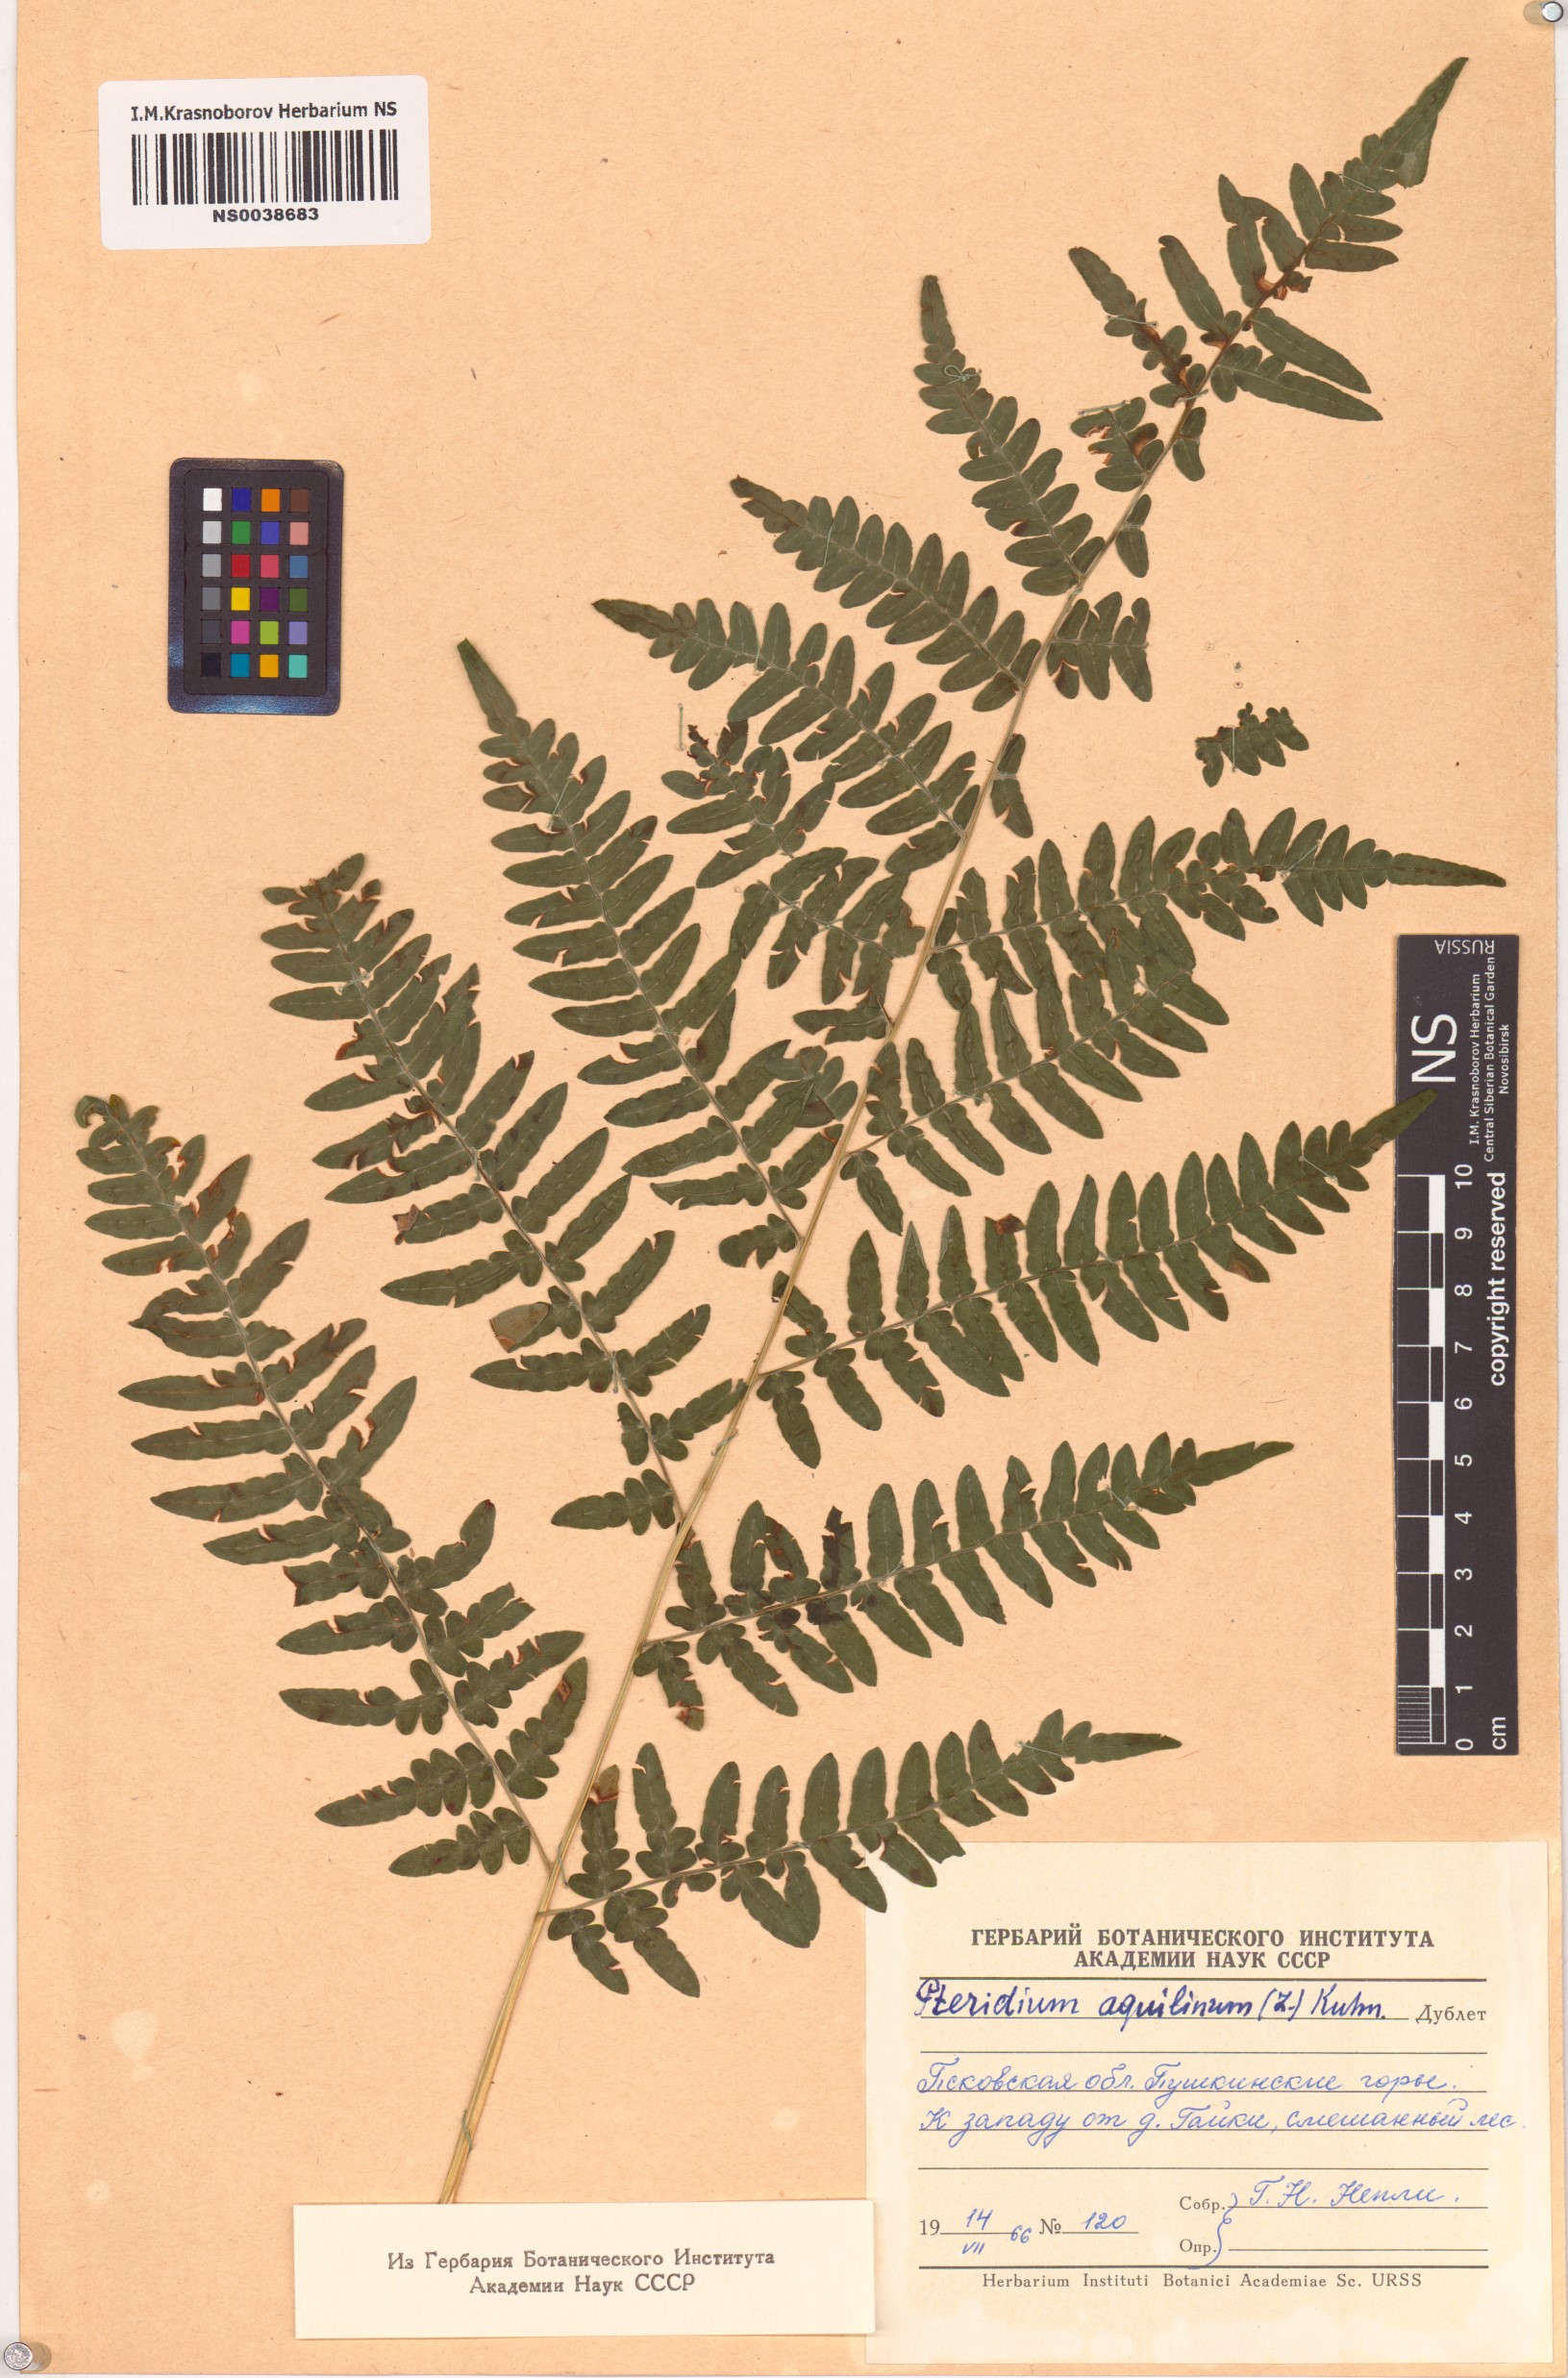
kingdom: Plantae
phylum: Tracheophyta
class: Polypodiopsida
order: Polypodiales
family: Dennstaedtiaceae
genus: Pteridium
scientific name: Pteridium aquilinum
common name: Bracken
